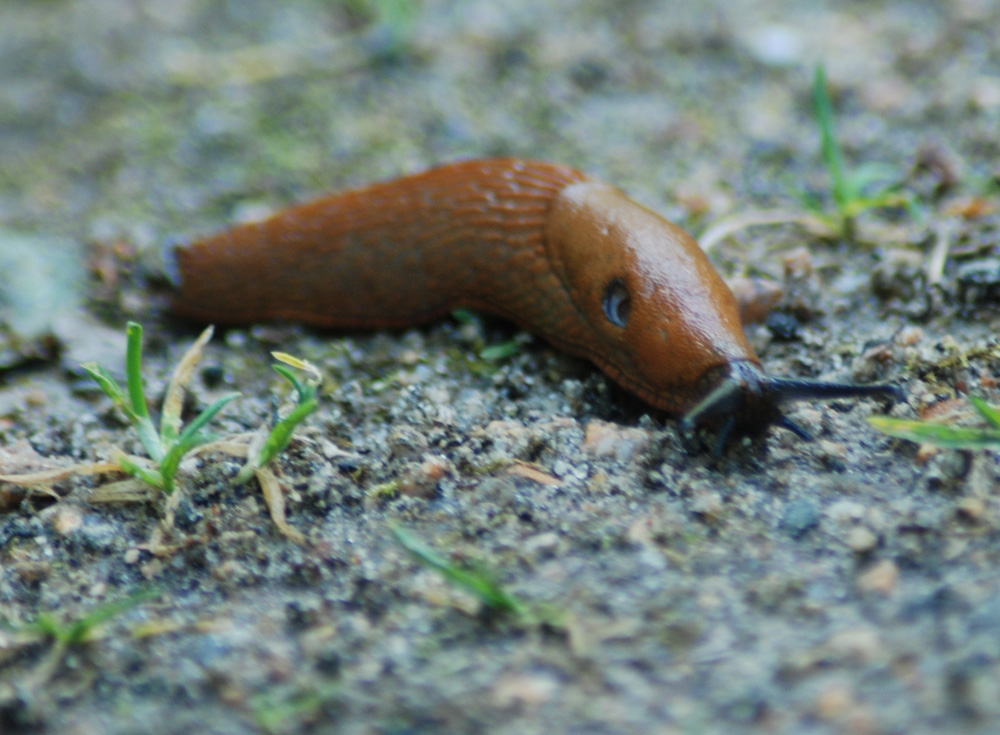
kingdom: Animalia
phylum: Mollusca
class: Gastropoda
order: Stylommatophora
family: Arionidae
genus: Arion
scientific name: Arion
